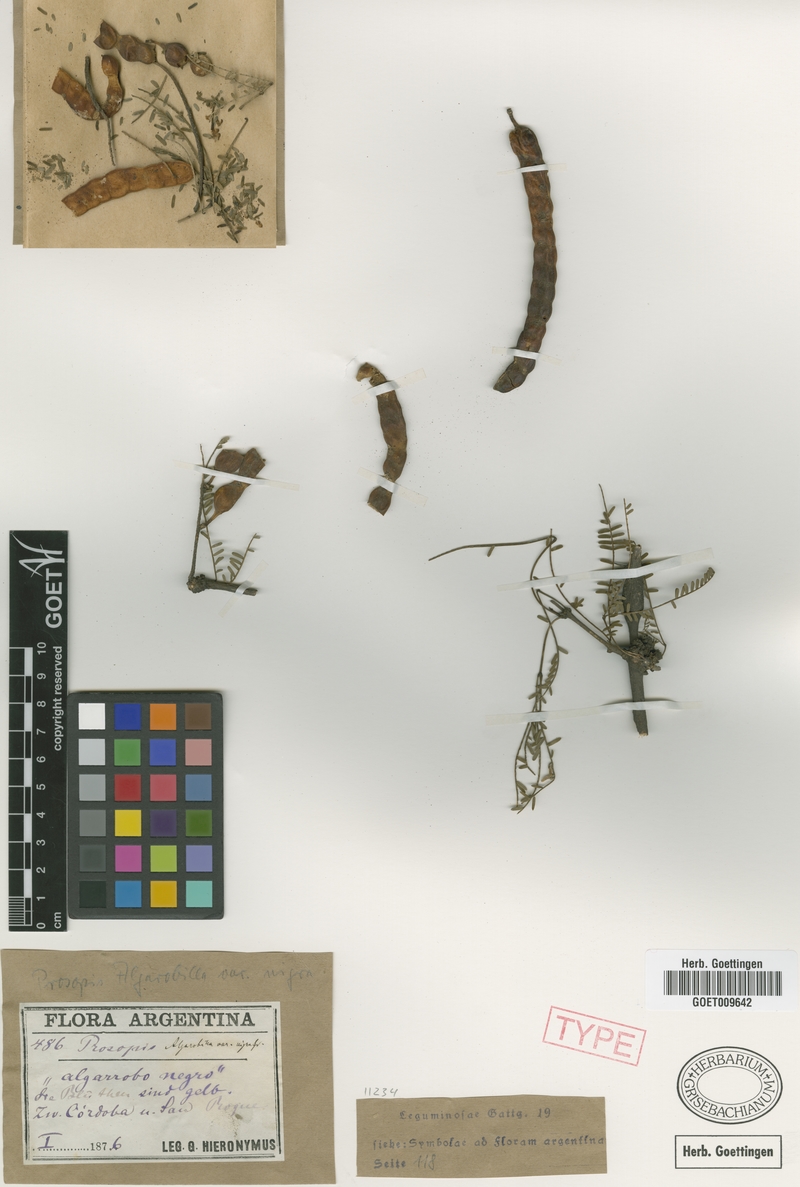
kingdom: Plantae
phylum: Tracheophyta
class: Magnoliopsida
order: Fabales
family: Fabaceae
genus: Prosopis
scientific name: Prosopis nigra
